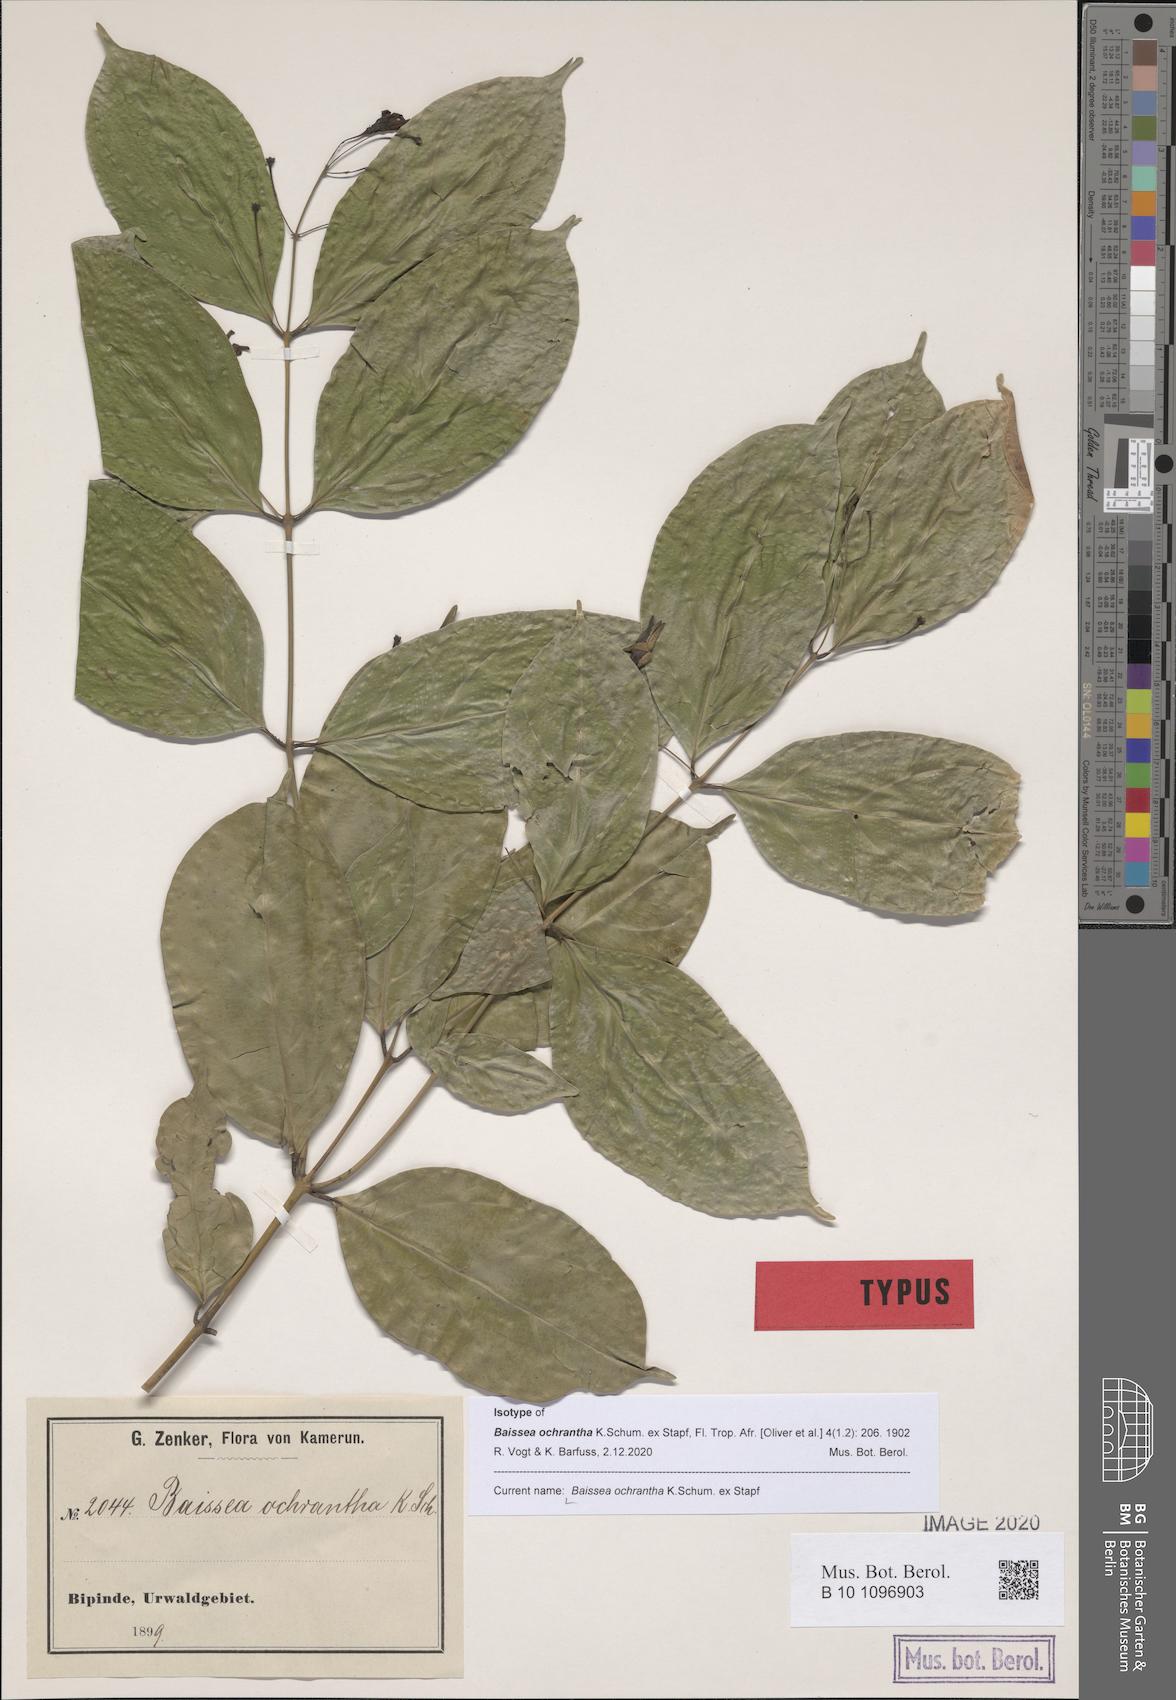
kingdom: Plantae
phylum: Tracheophyta
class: Magnoliopsida
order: Gentianales
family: Apocynaceae
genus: Baissea
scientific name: Baissea ochrantha
